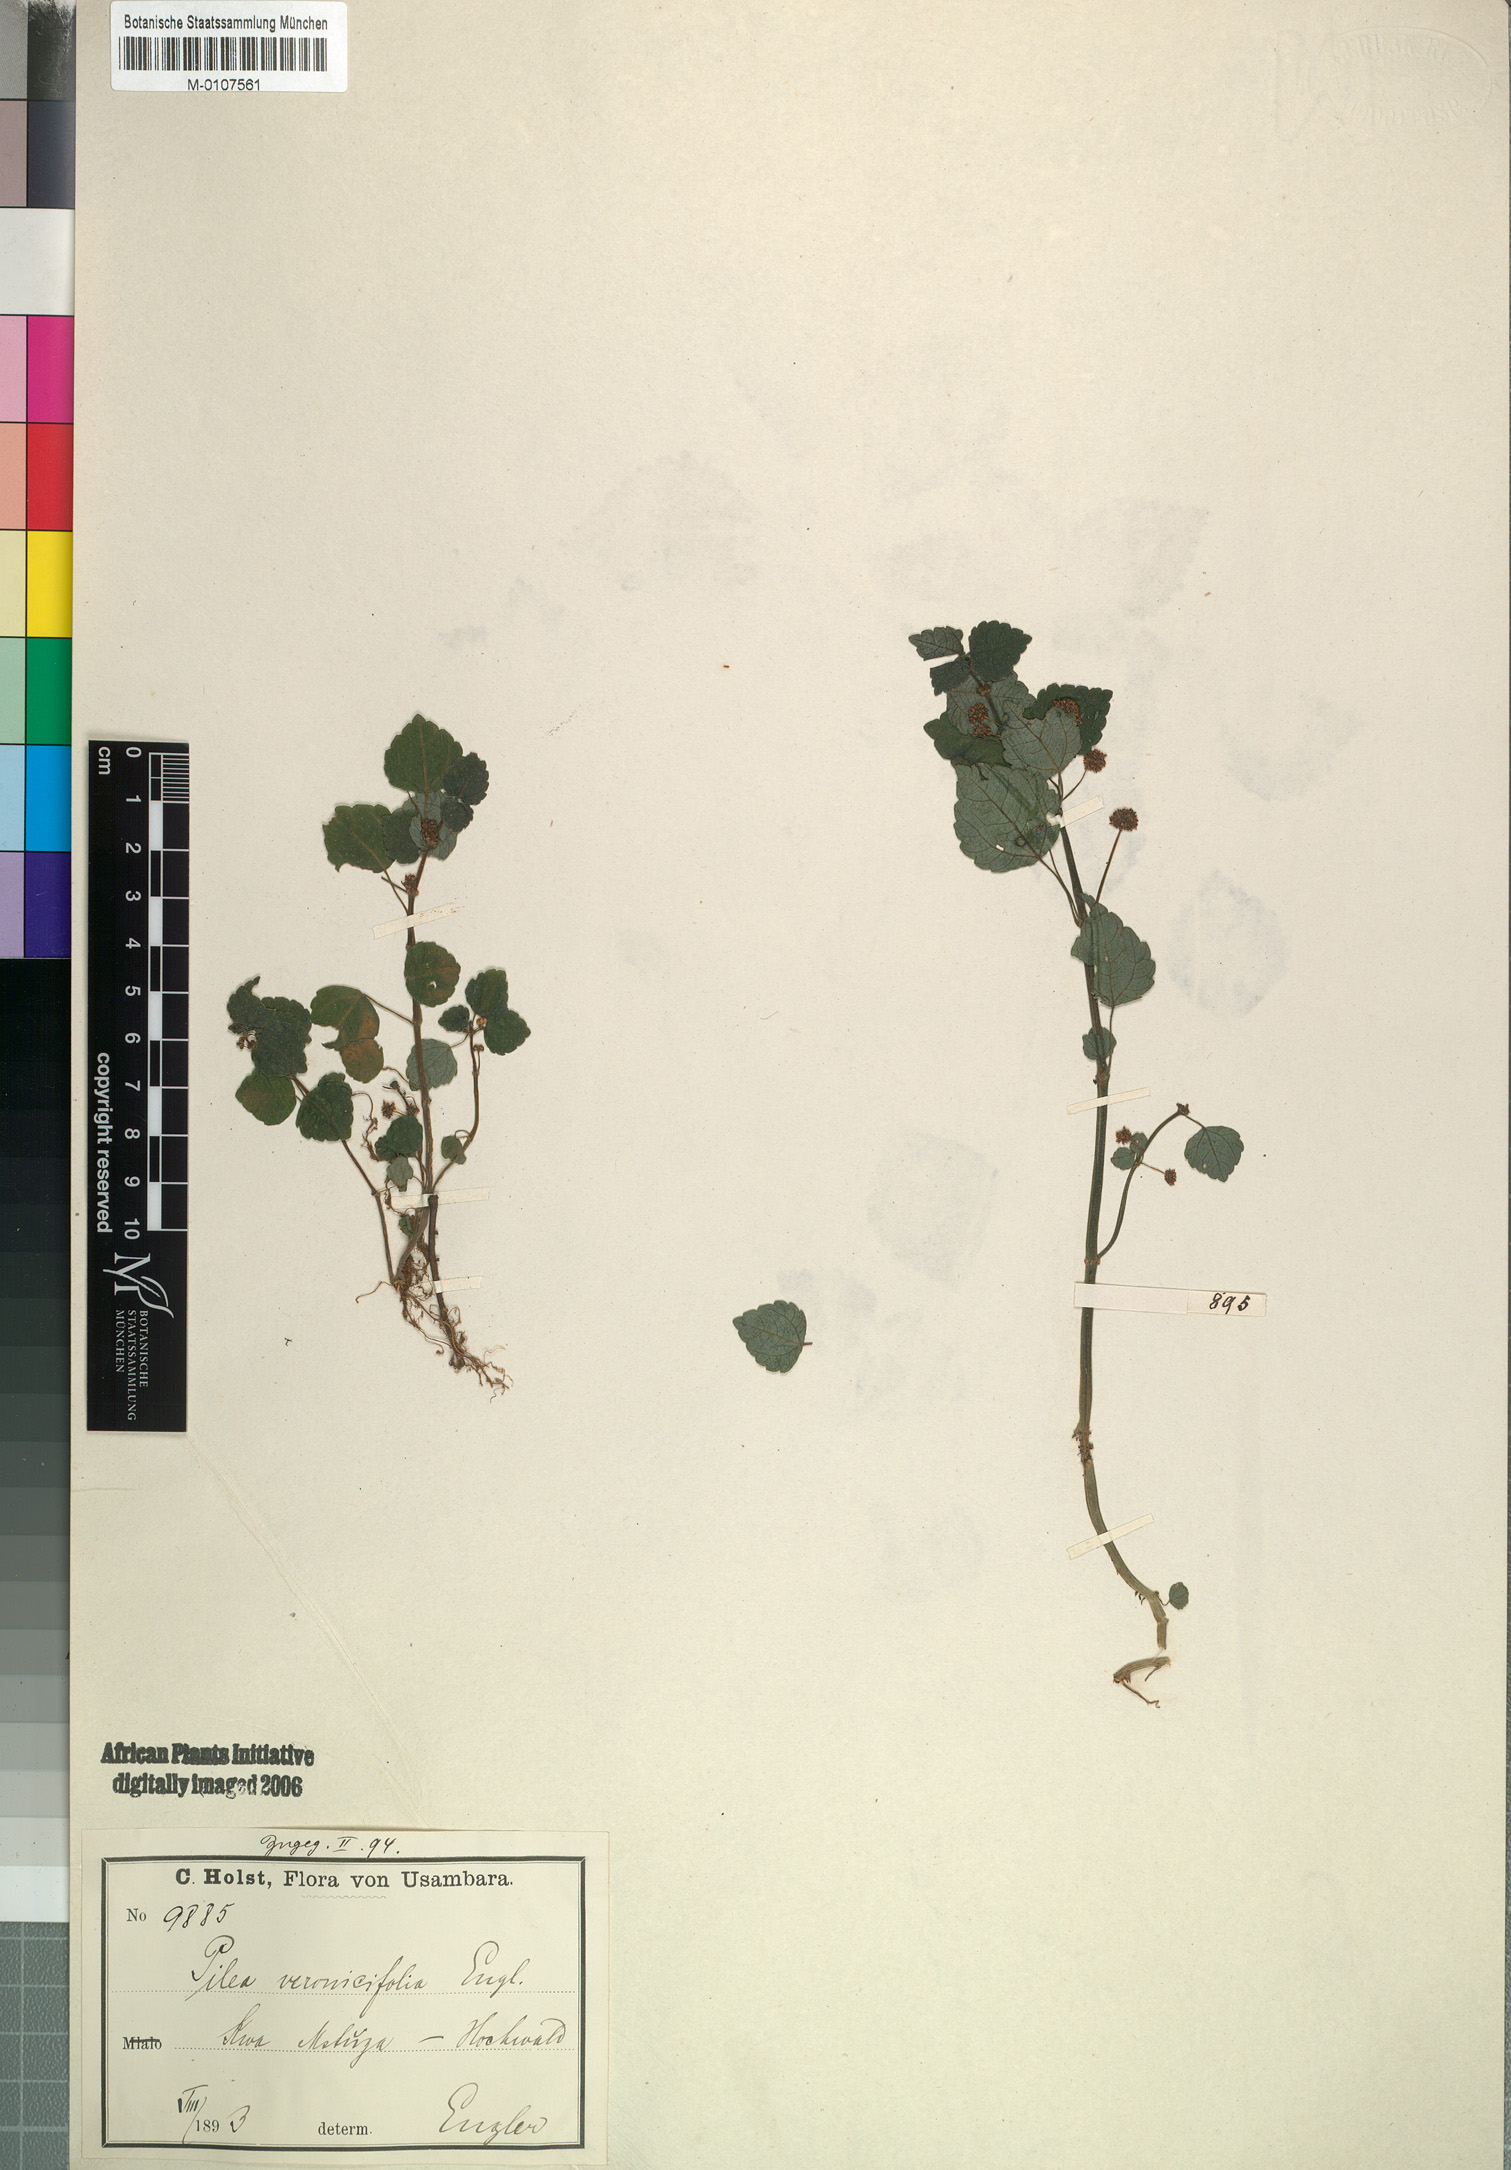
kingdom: Plantae
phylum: Tracheophyta
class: Magnoliopsida
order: Rosales
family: Urticaceae
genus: Pilea
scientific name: Pilea usambarensis
